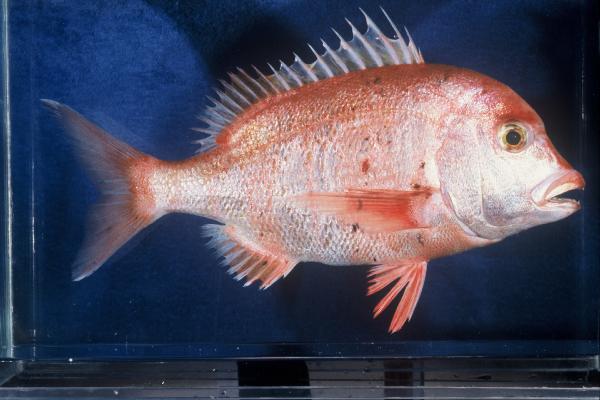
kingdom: Animalia
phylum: Chordata
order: Perciformes
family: Sparidae
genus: Chrysoblephus
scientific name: Chrysoblephus gibbiceps
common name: Red stumpnose
